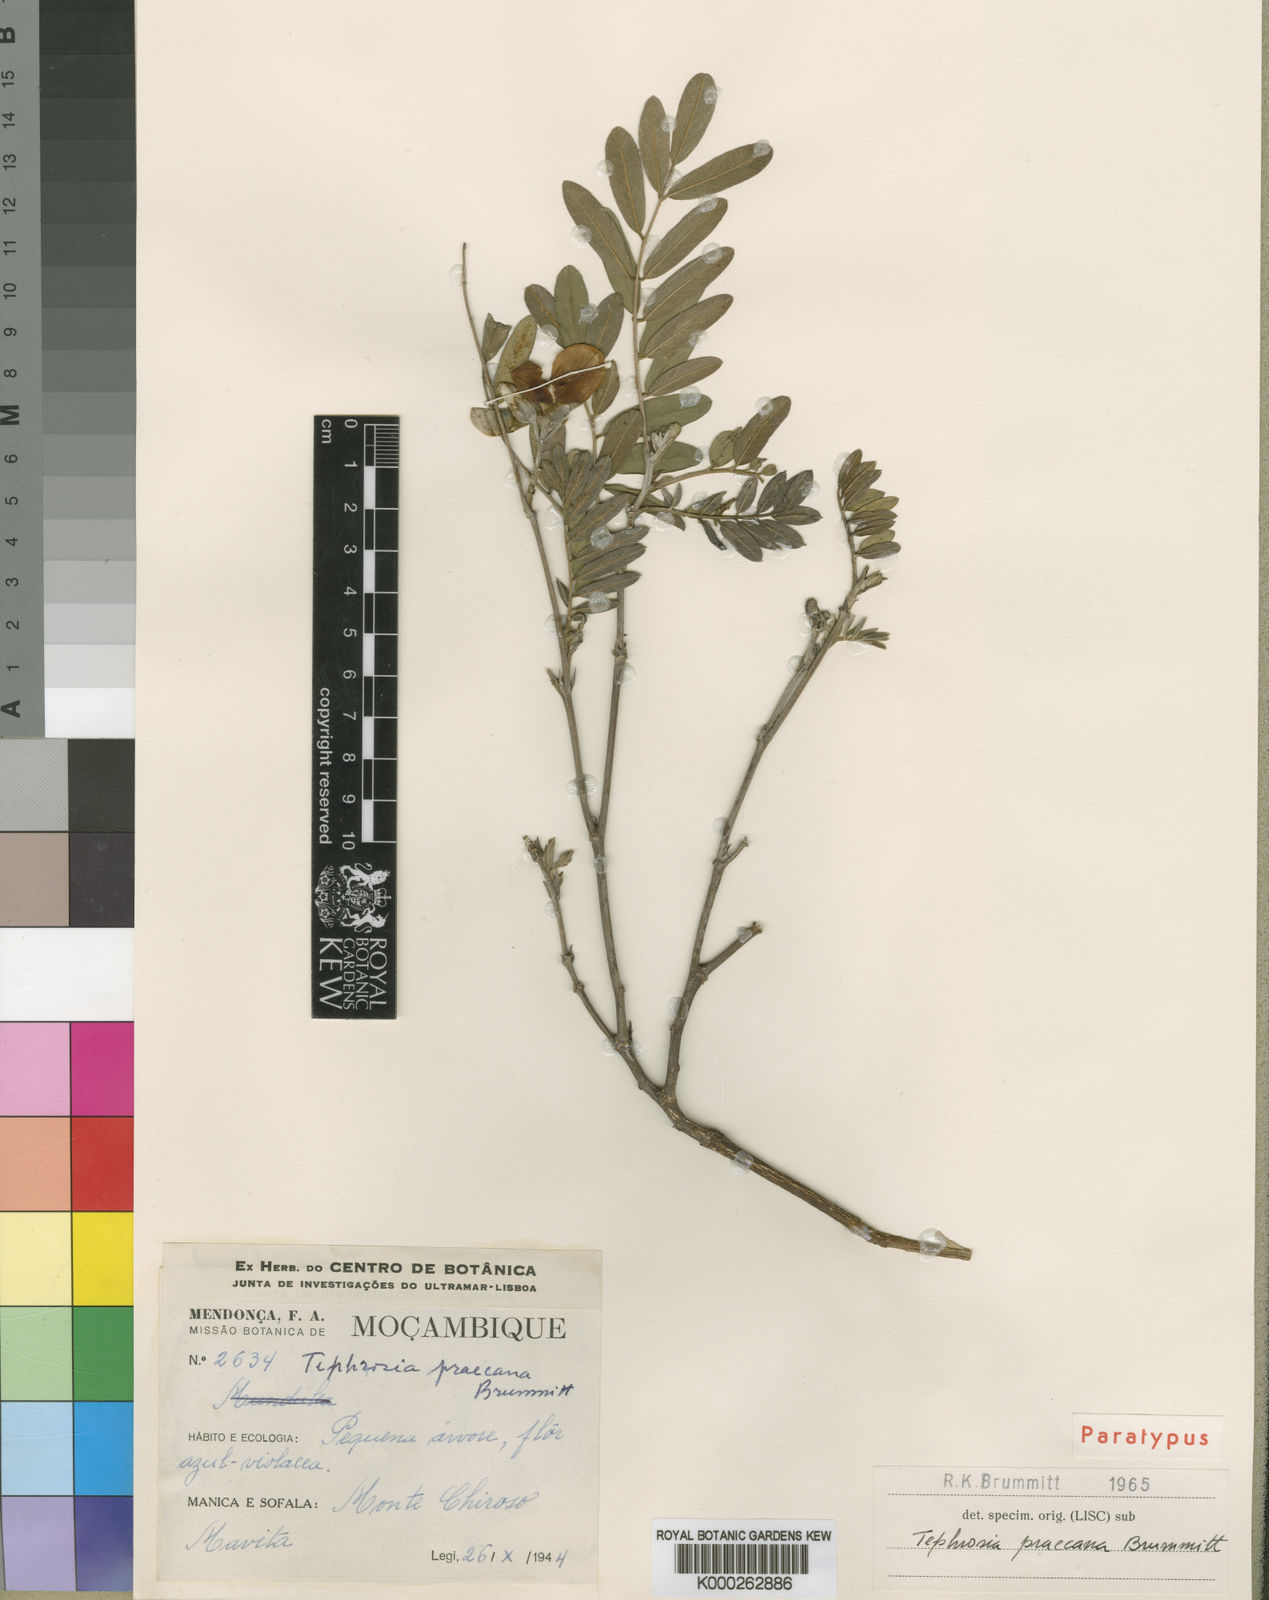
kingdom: Plantae
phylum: Tracheophyta
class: Magnoliopsida
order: Fabales
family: Fabaceae
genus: Tephrosia
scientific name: Tephrosia praecana
